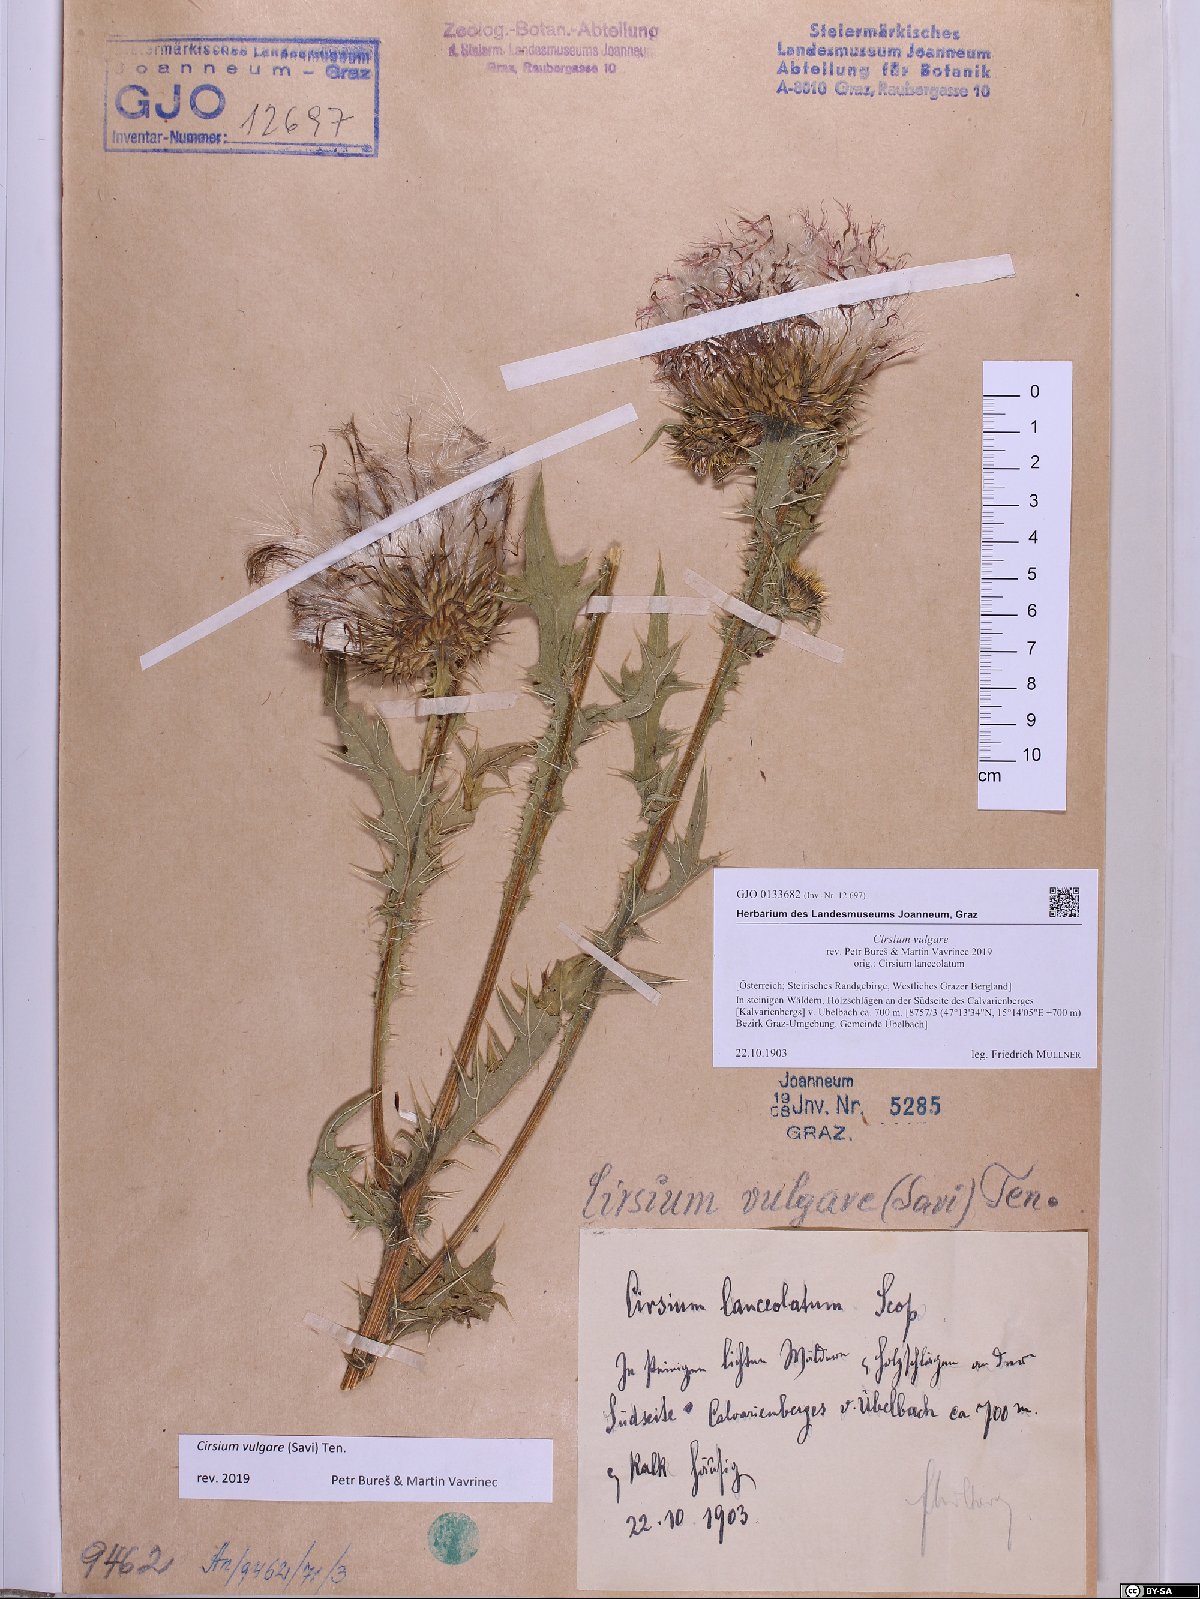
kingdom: Plantae
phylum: Tracheophyta
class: Magnoliopsida
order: Asterales
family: Asteraceae
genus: Cirsium
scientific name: Cirsium vulgare
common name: Bull thistle
